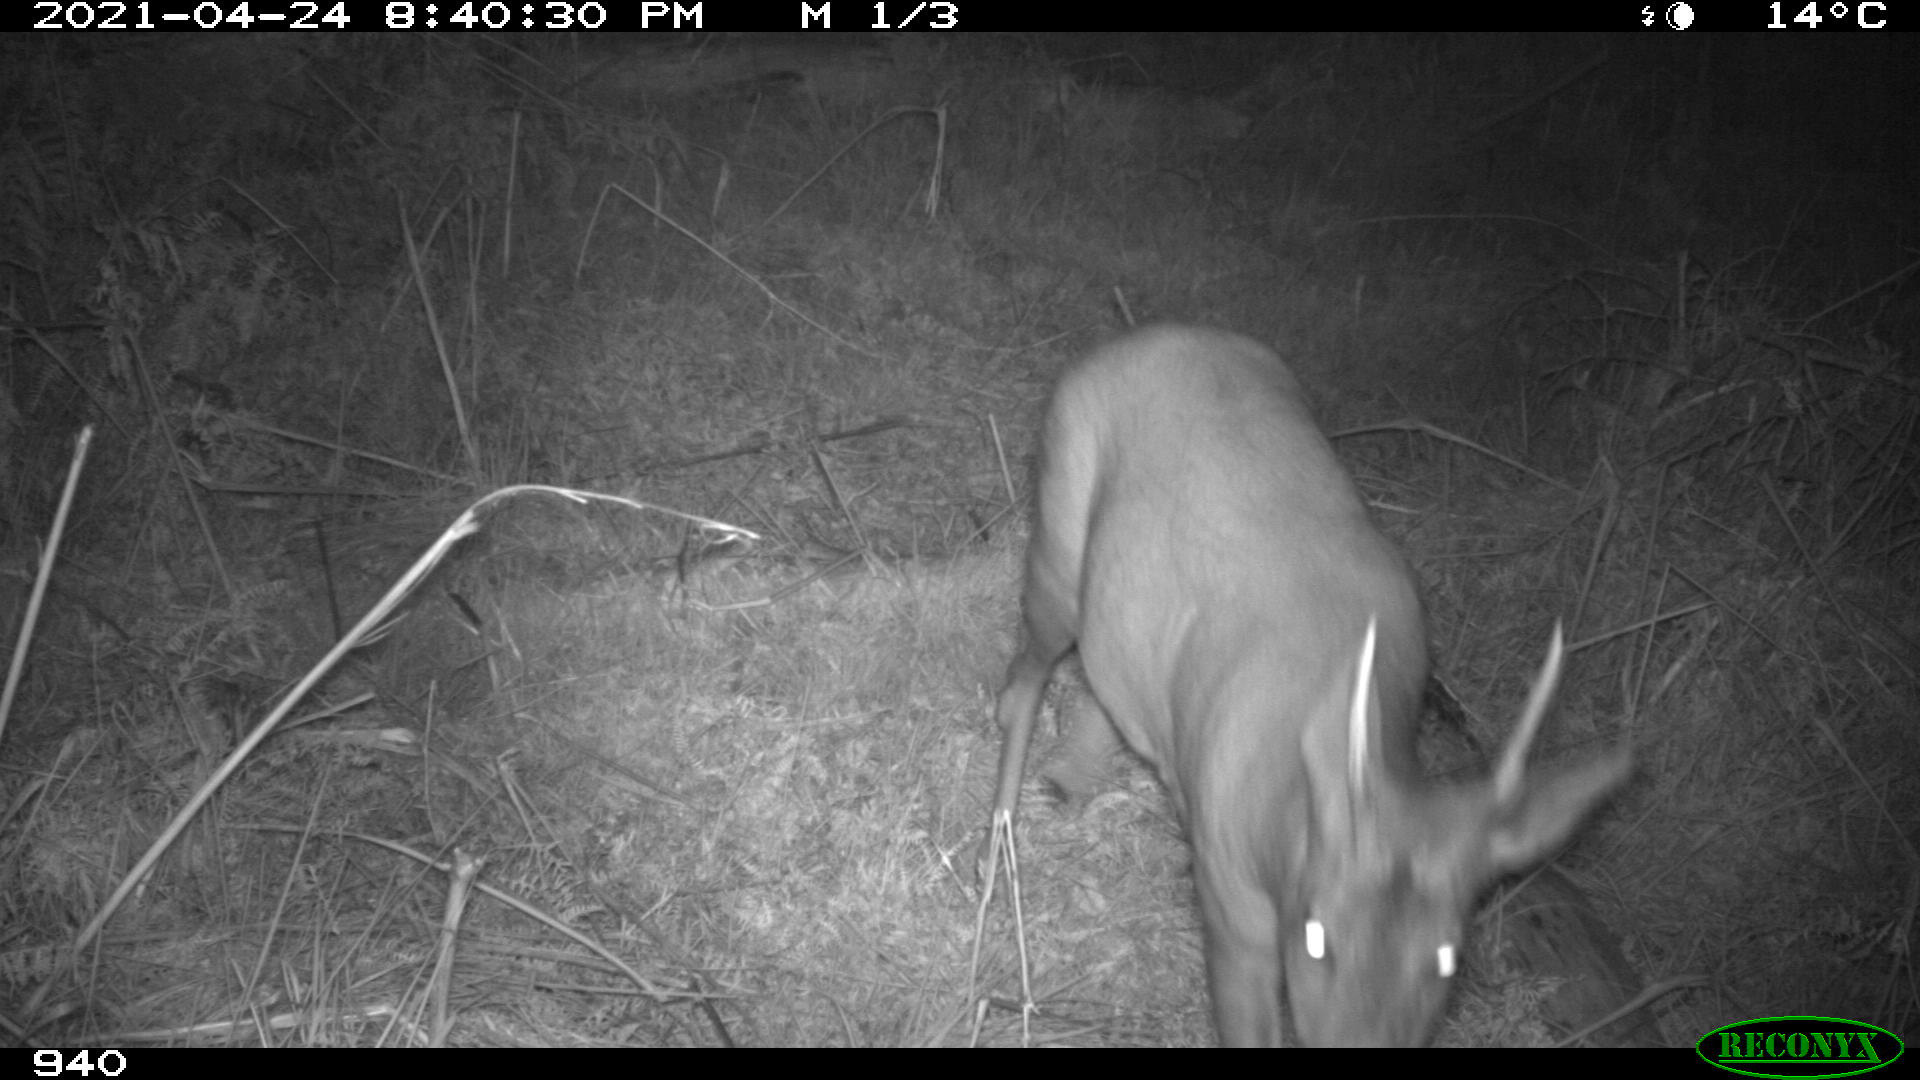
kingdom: Animalia
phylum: Chordata
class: Mammalia
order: Artiodactyla
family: Cervidae
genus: Capreolus
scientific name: Capreolus capreolus
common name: Western roe deer
